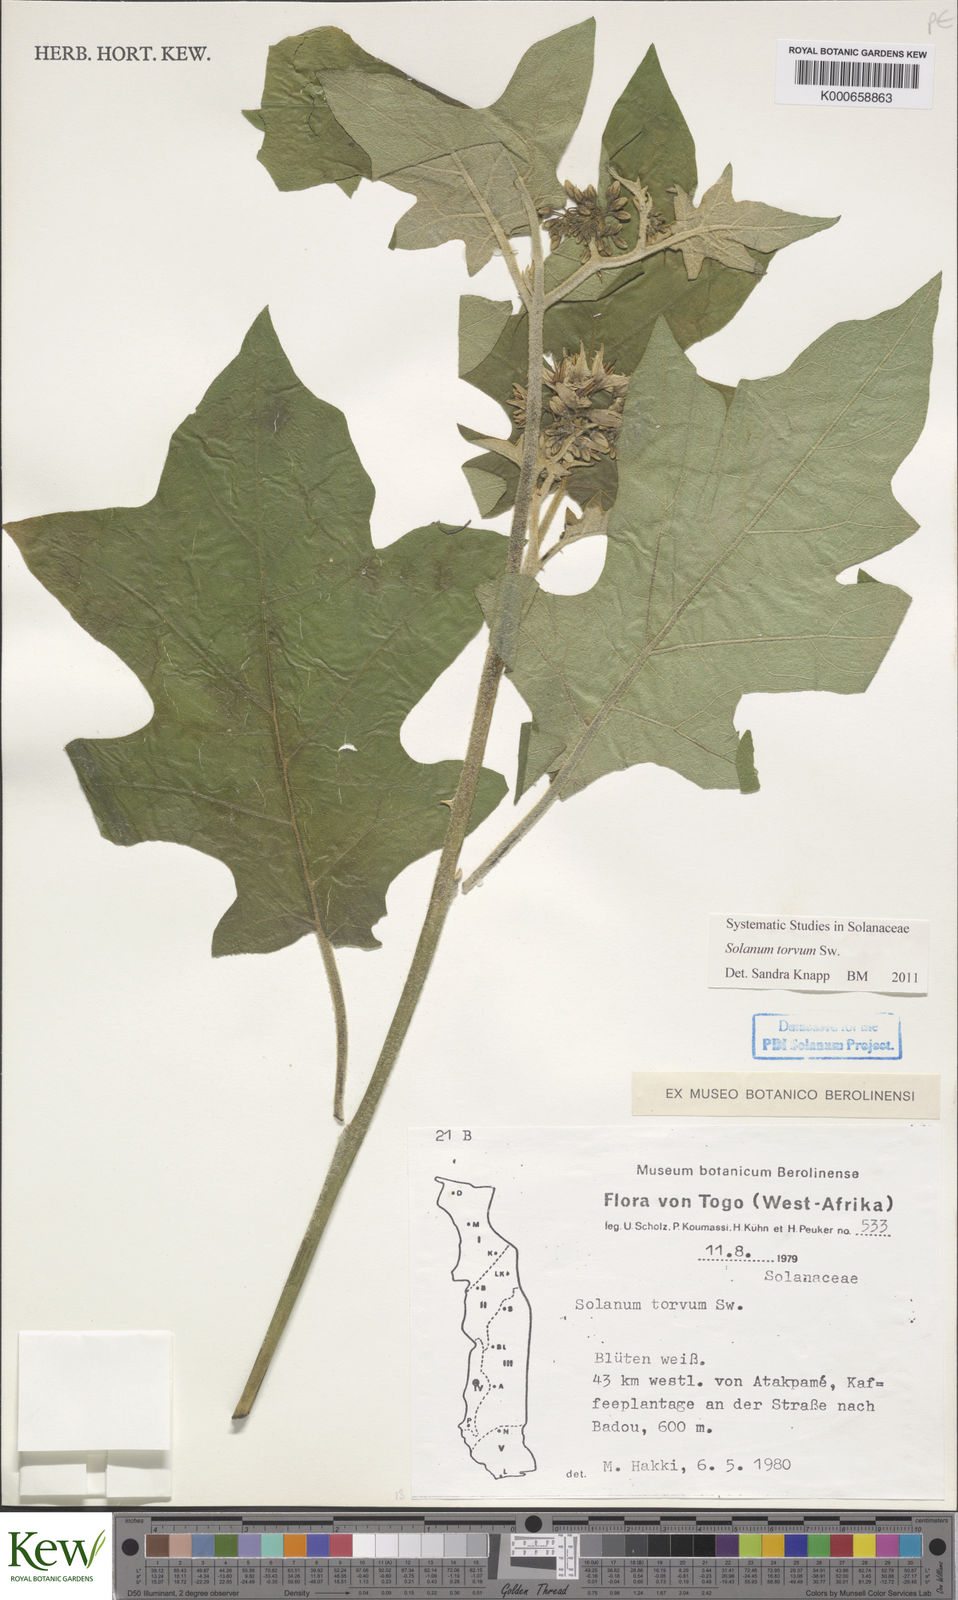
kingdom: Plantae
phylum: Tracheophyta
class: Magnoliopsida
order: Solanales
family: Solanaceae
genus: Solanum
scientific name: Solanum torvum
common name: Turkey berry
